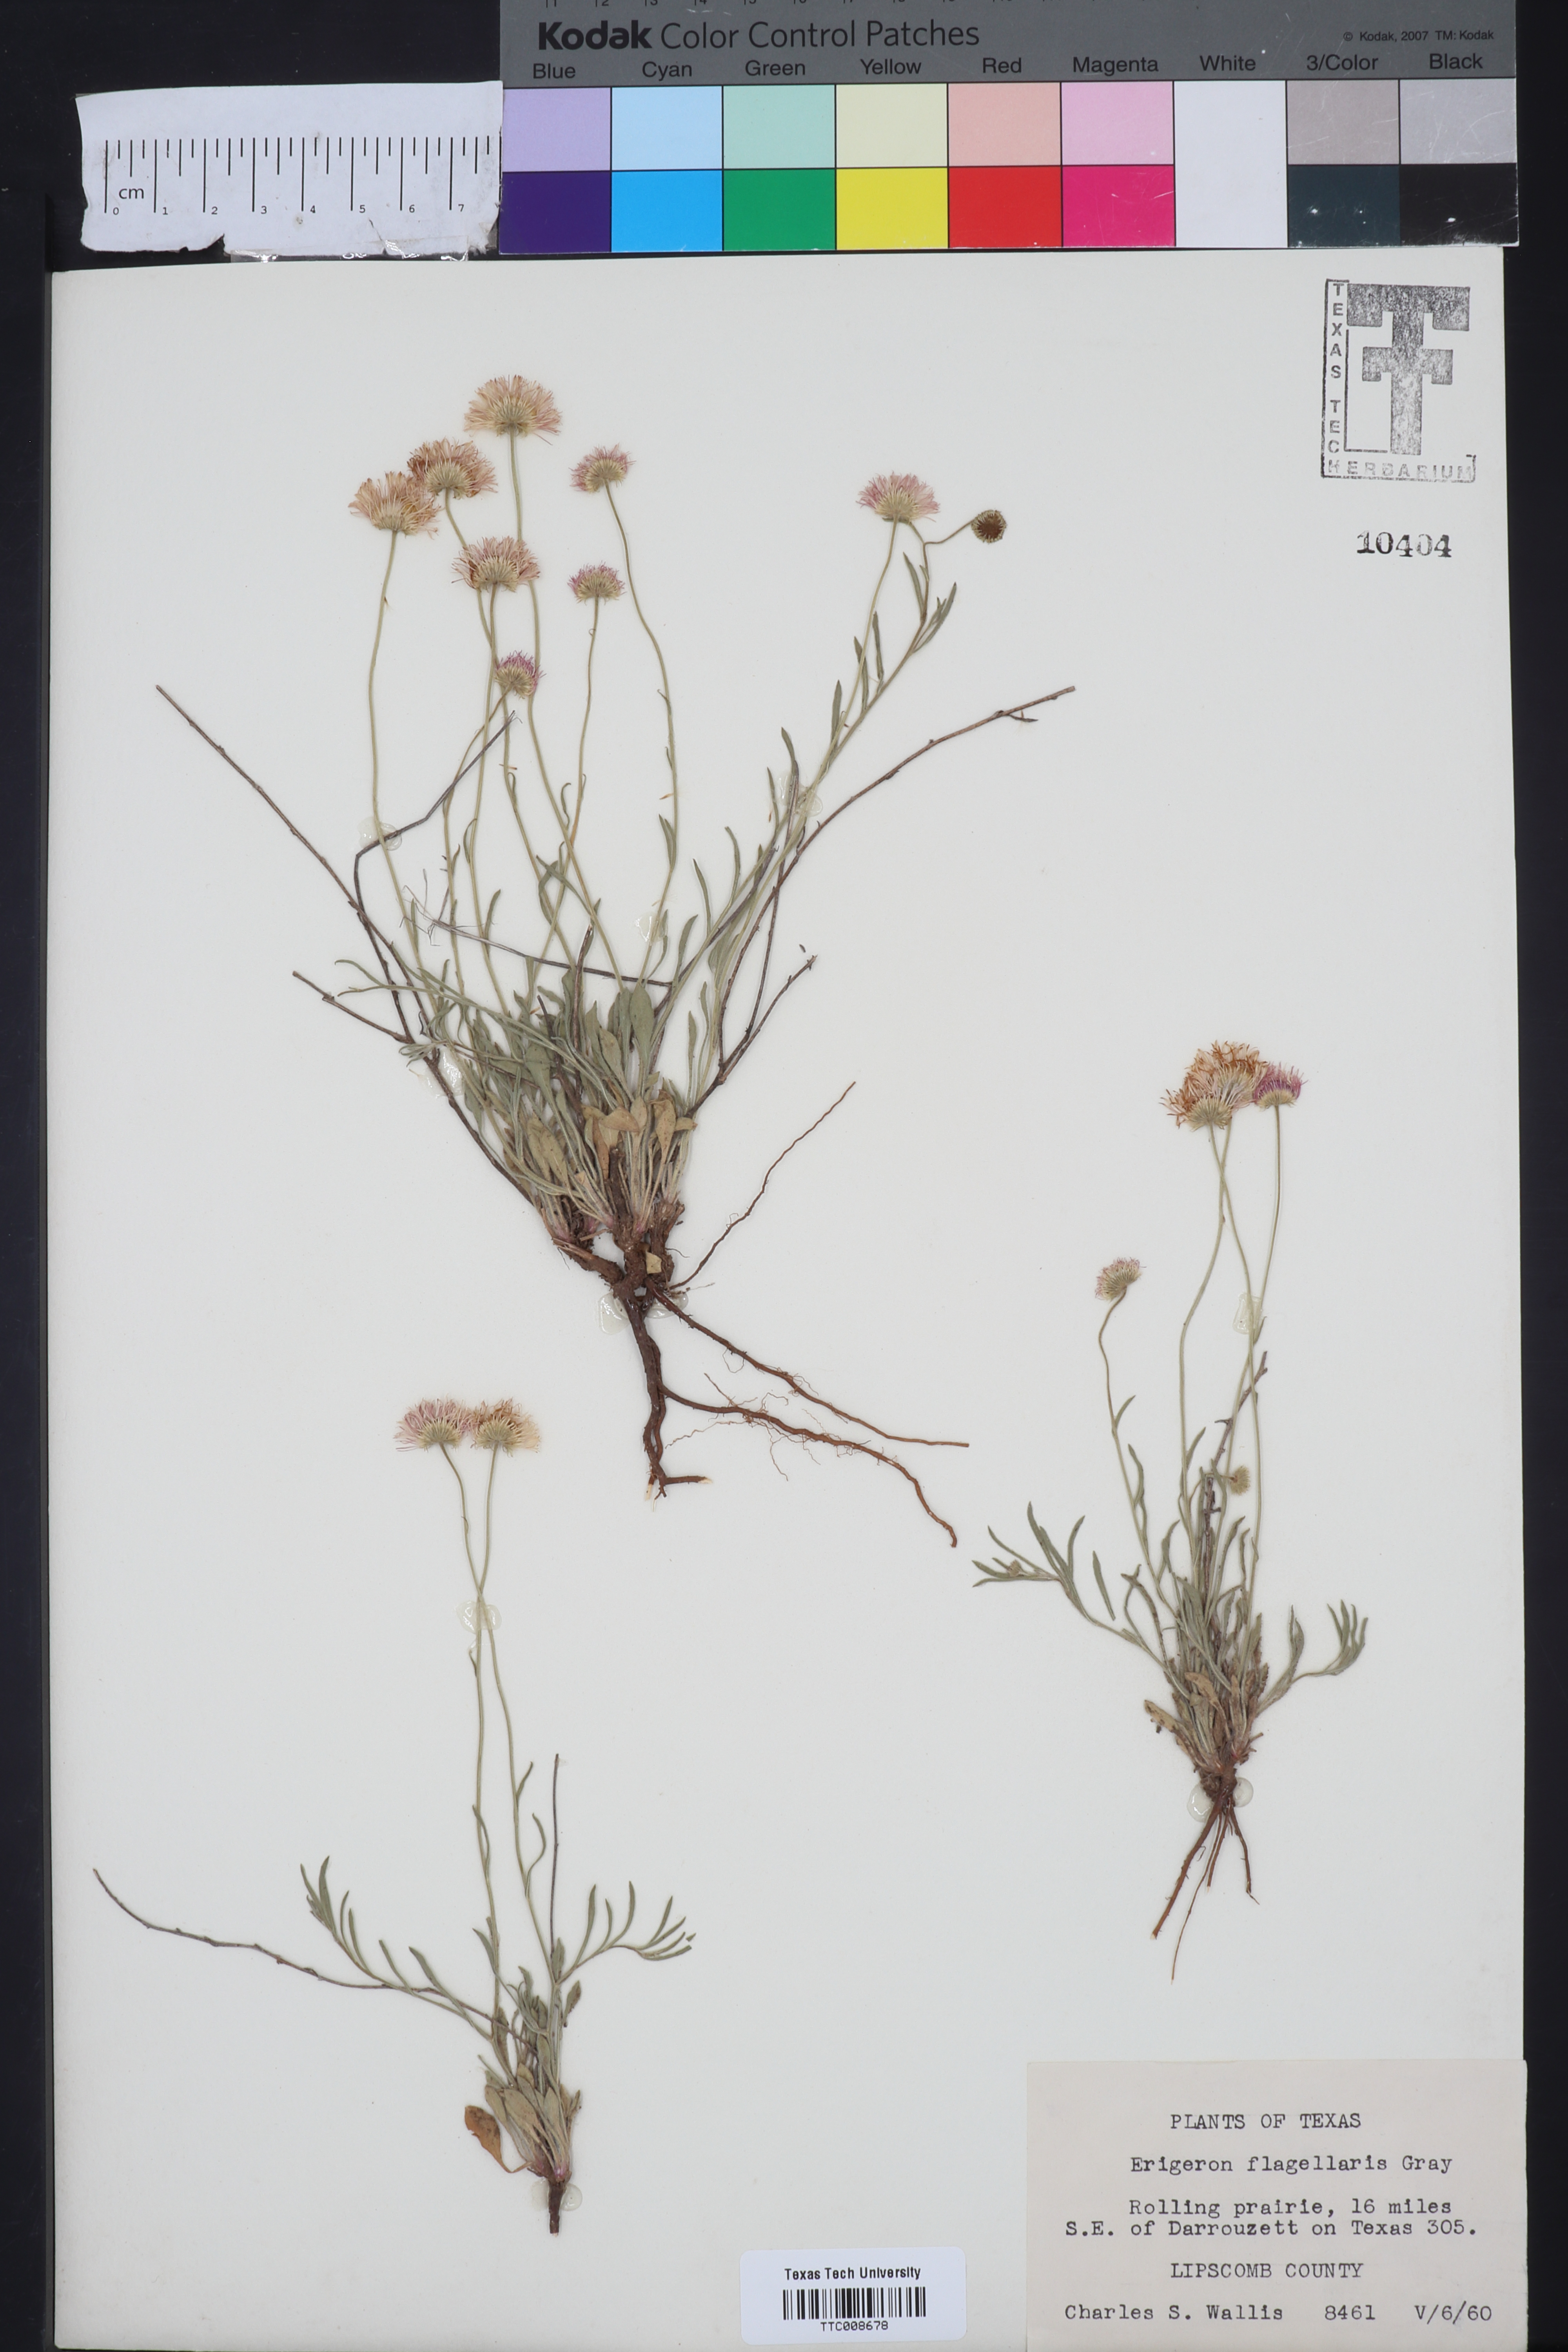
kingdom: Plantae
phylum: Tracheophyta
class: Magnoliopsida
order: Asterales
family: Asteraceae
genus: Erigeron
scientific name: Erigeron flagellaris
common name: Running fleabane
